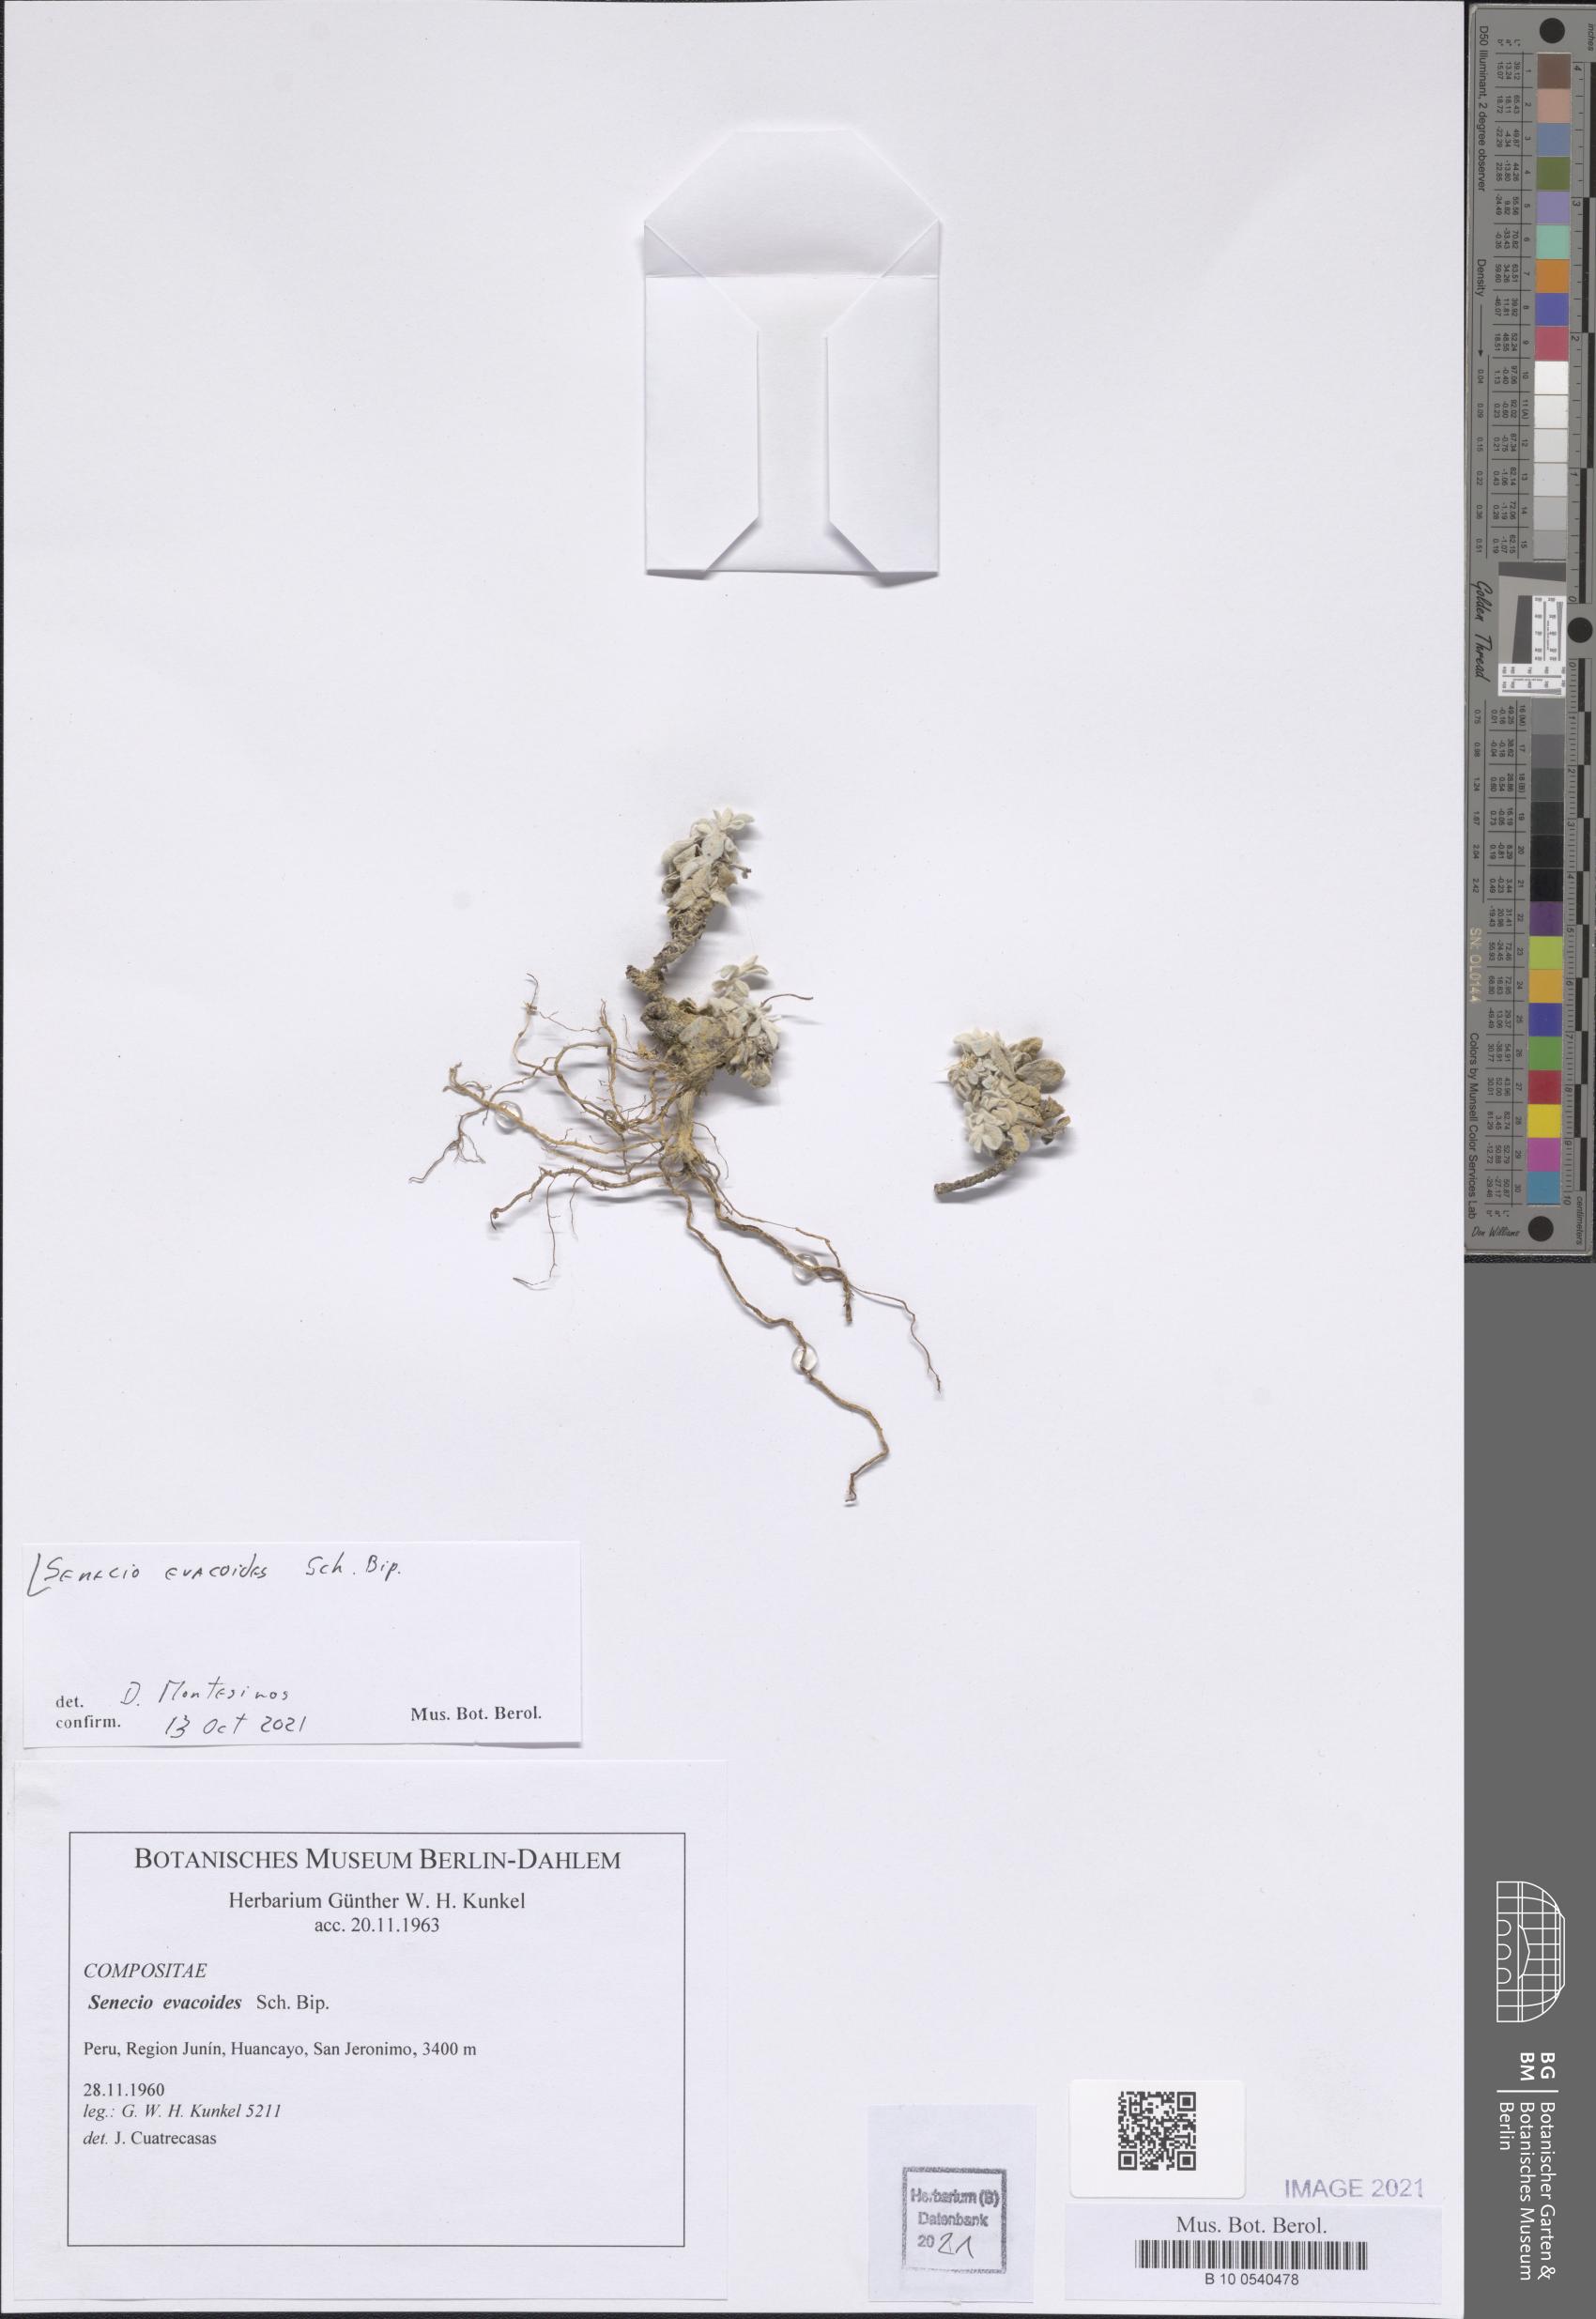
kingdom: Plantae
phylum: Tracheophyta
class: Magnoliopsida
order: Asterales
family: Asteraceae
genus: Senecio
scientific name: Senecio evacoides
